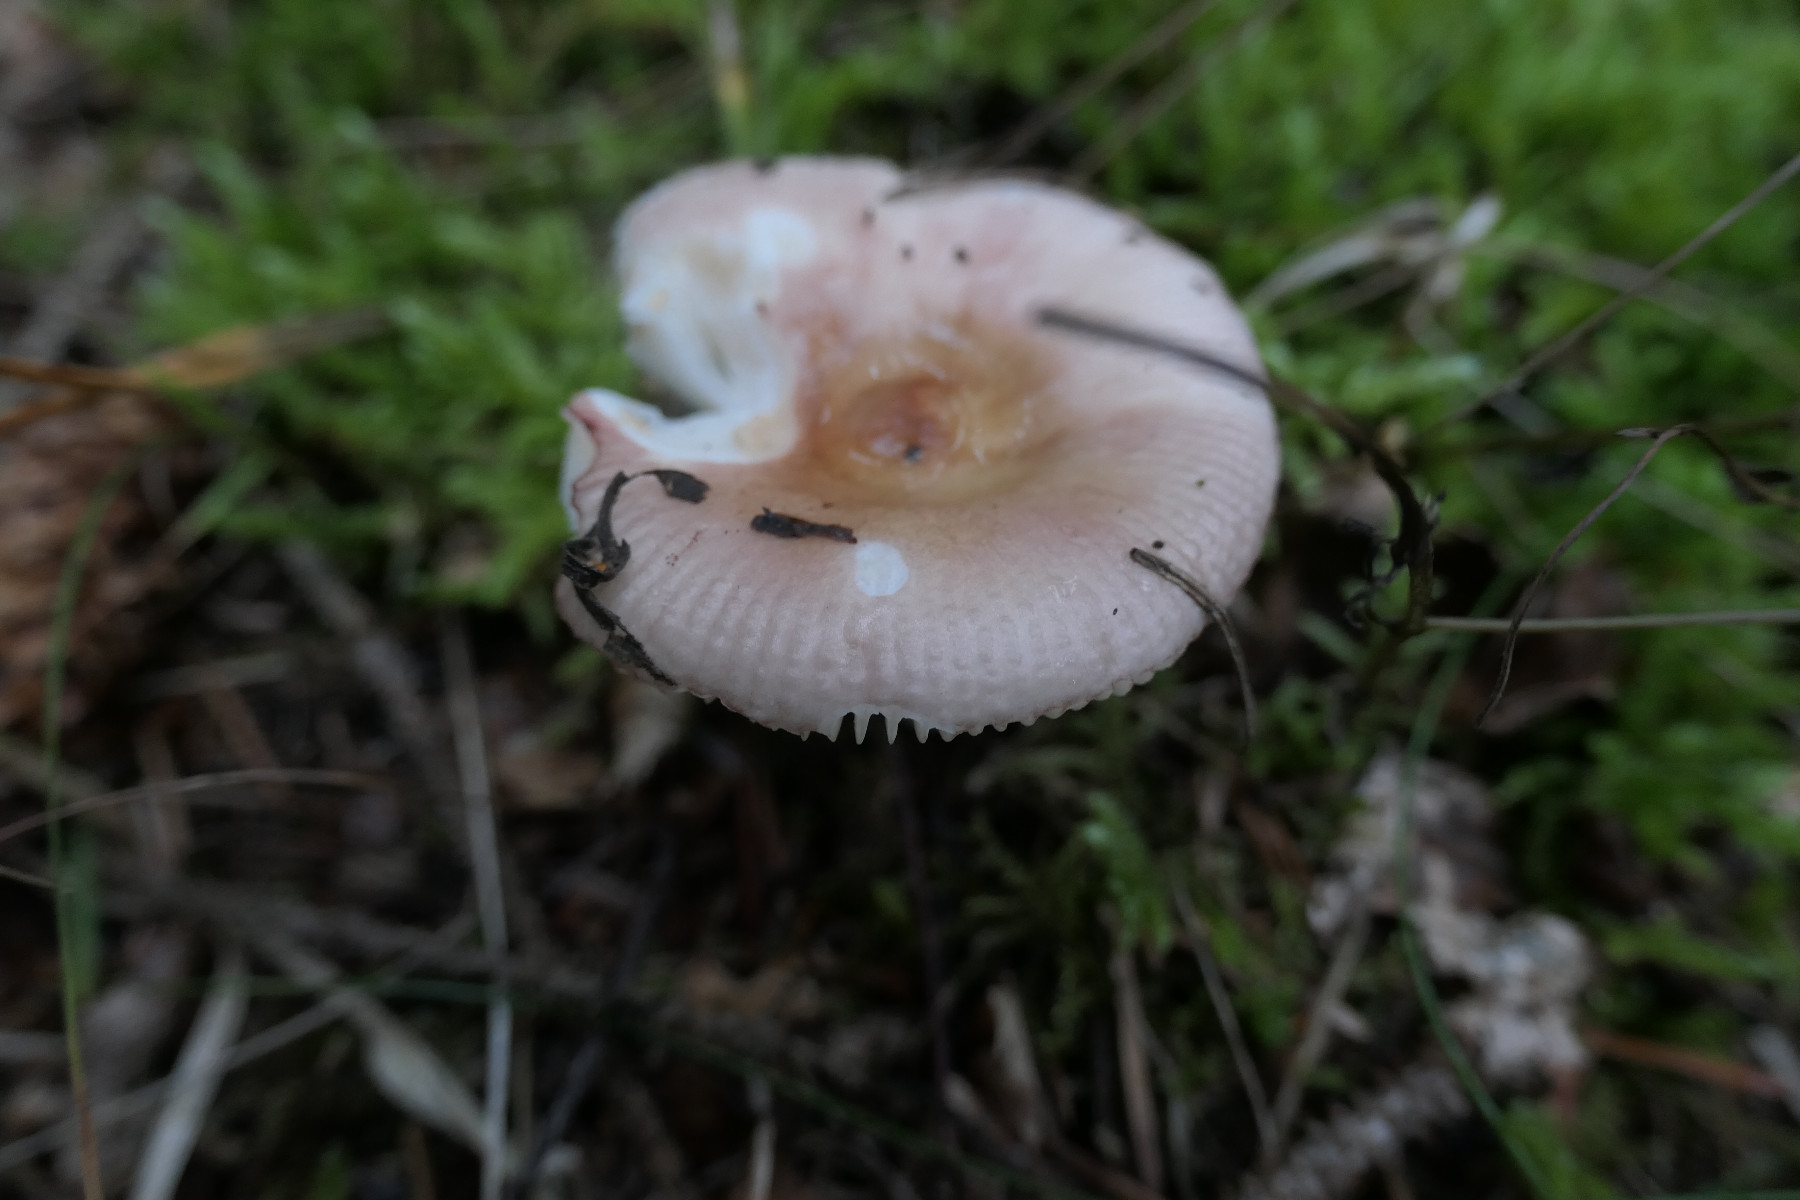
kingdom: Fungi
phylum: Basidiomycota
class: Agaricomycetes
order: Russulales
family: Russulaceae
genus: Russula
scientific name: Russula nauseosa
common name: spinkel skørhat
